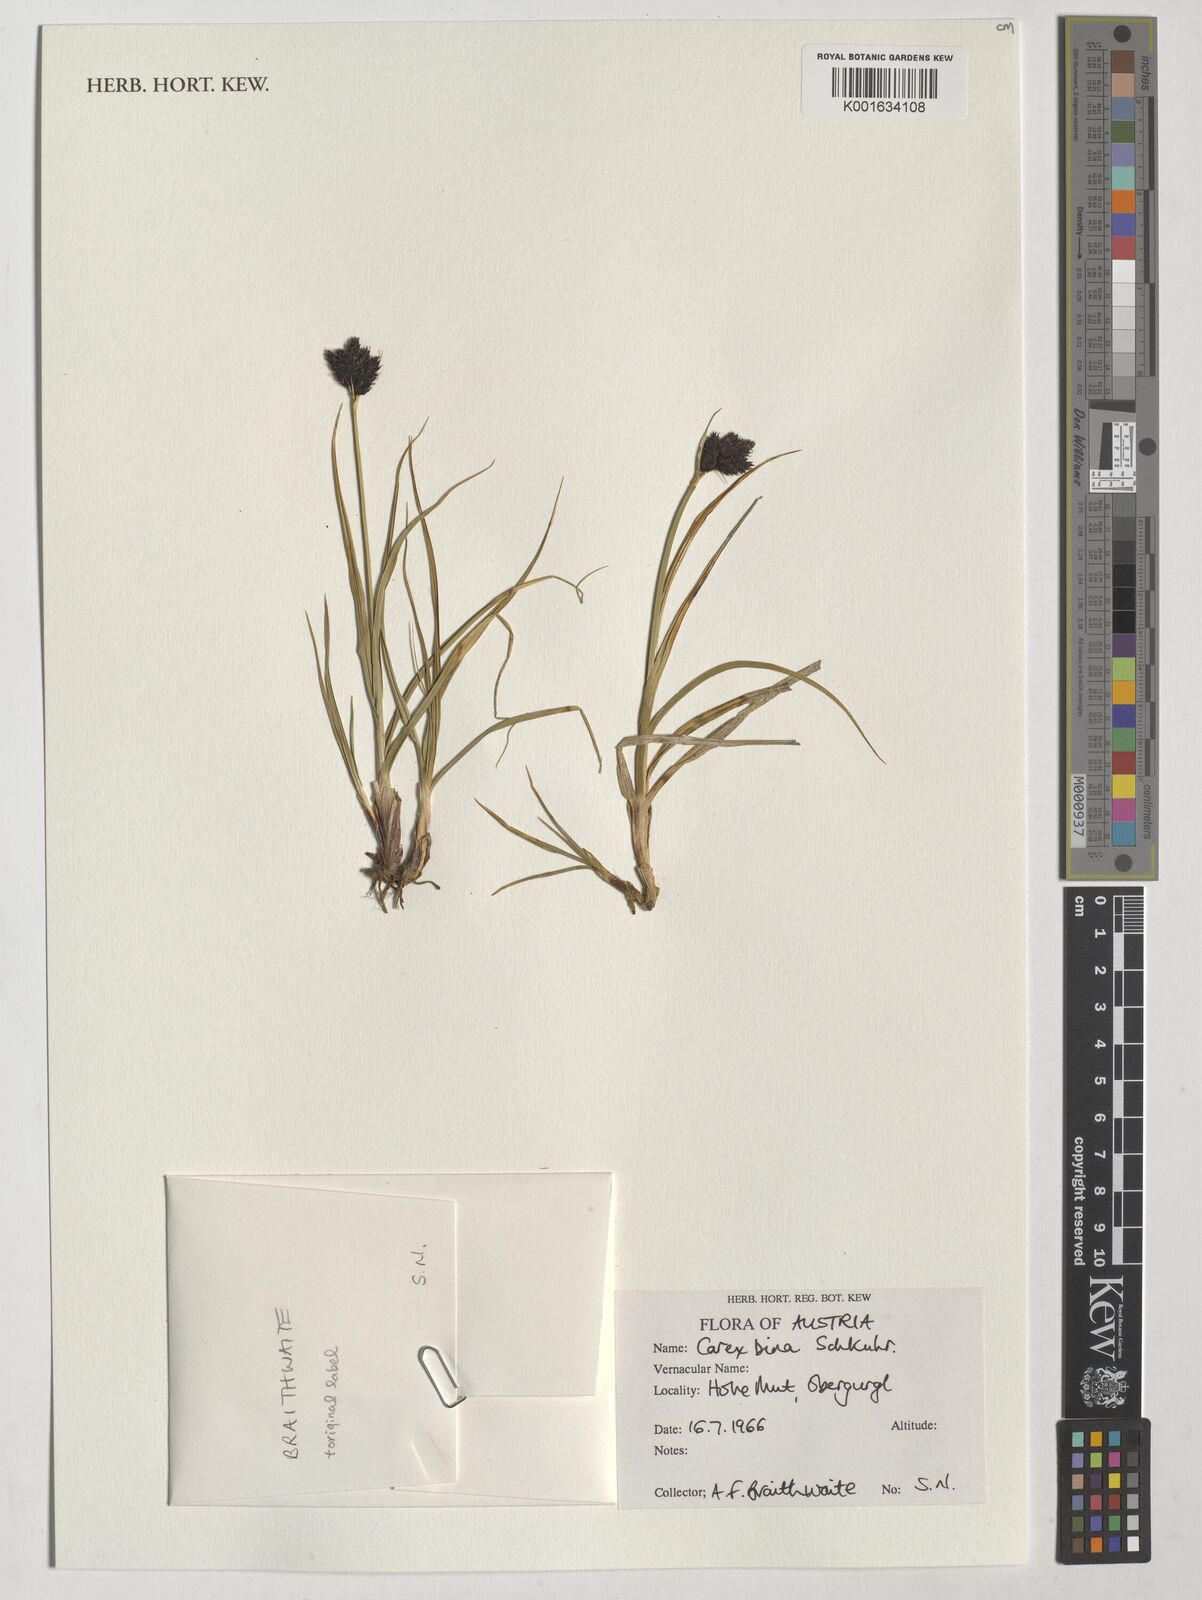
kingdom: Plantae
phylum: Tracheophyta
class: Liliopsida
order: Poales
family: Cyperaceae
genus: Carex
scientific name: Carex distachya
